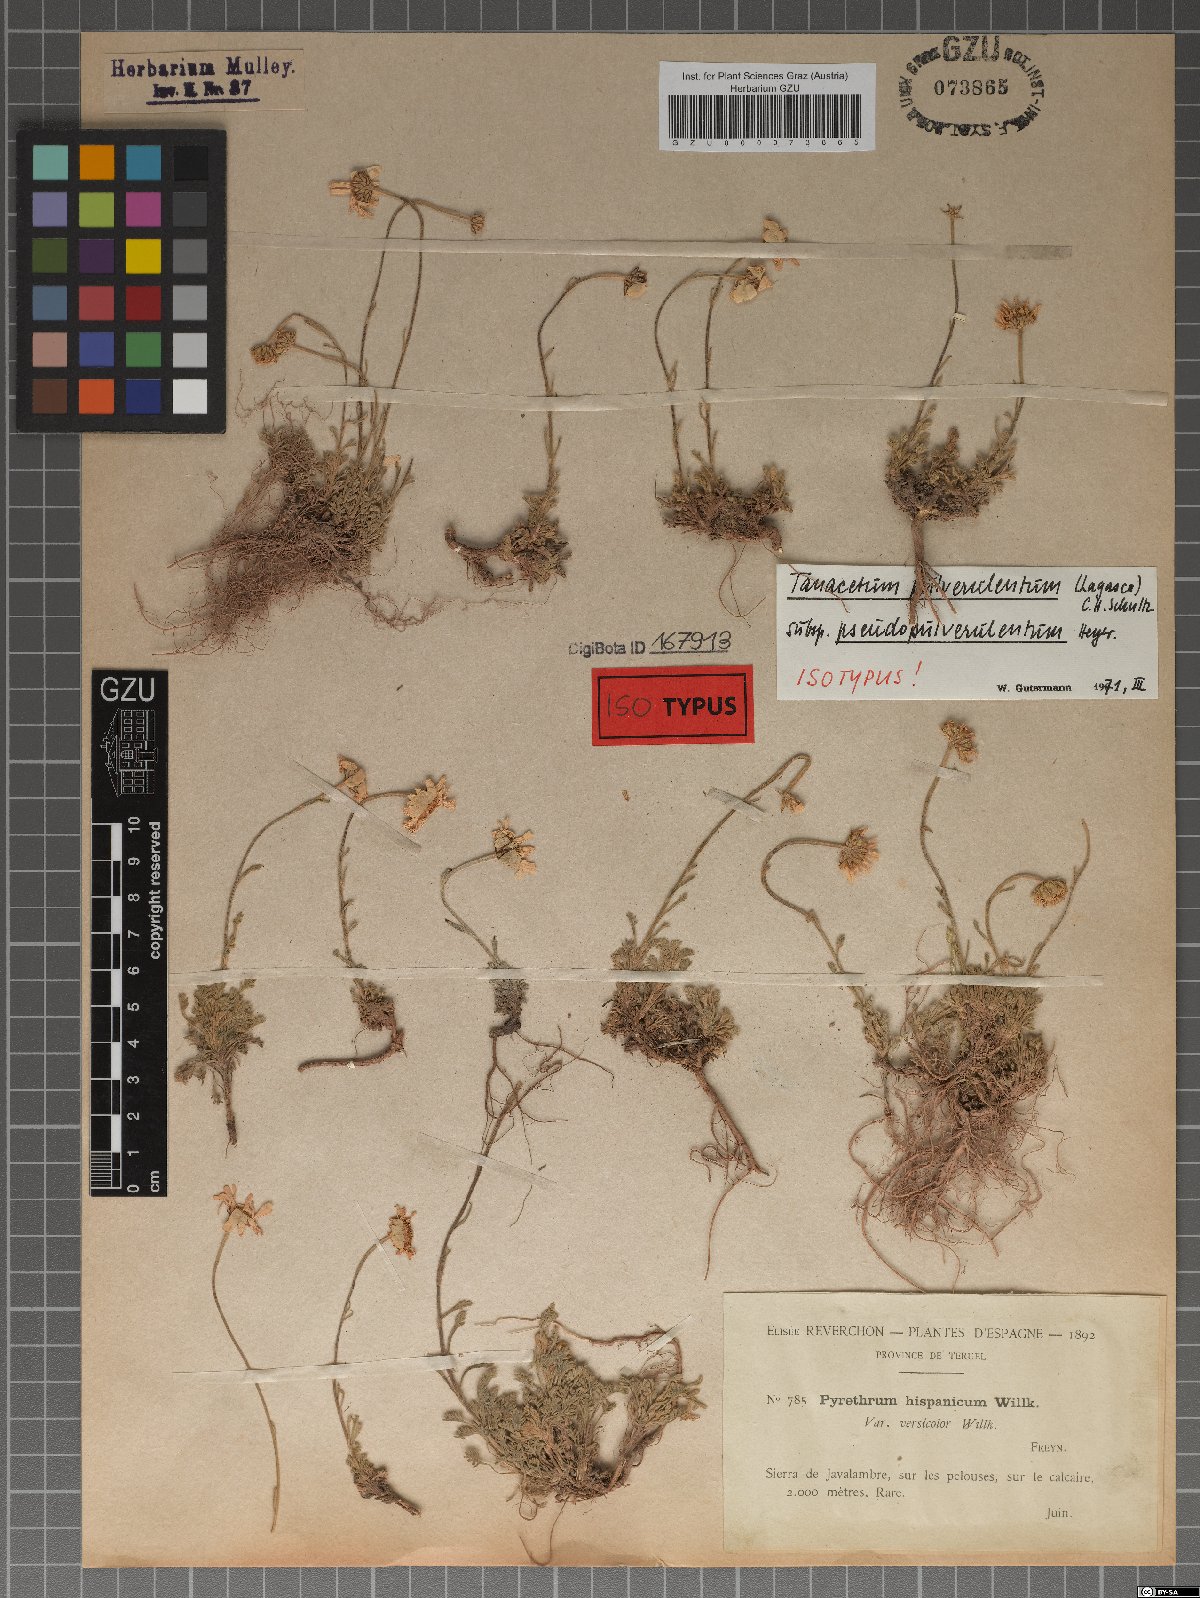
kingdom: Plantae
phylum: Tracheophyta
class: Magnoliopsida
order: Asterales
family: Asteraceae
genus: Leucanthemopsis
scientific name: Leucanthemopsis heywoodii
